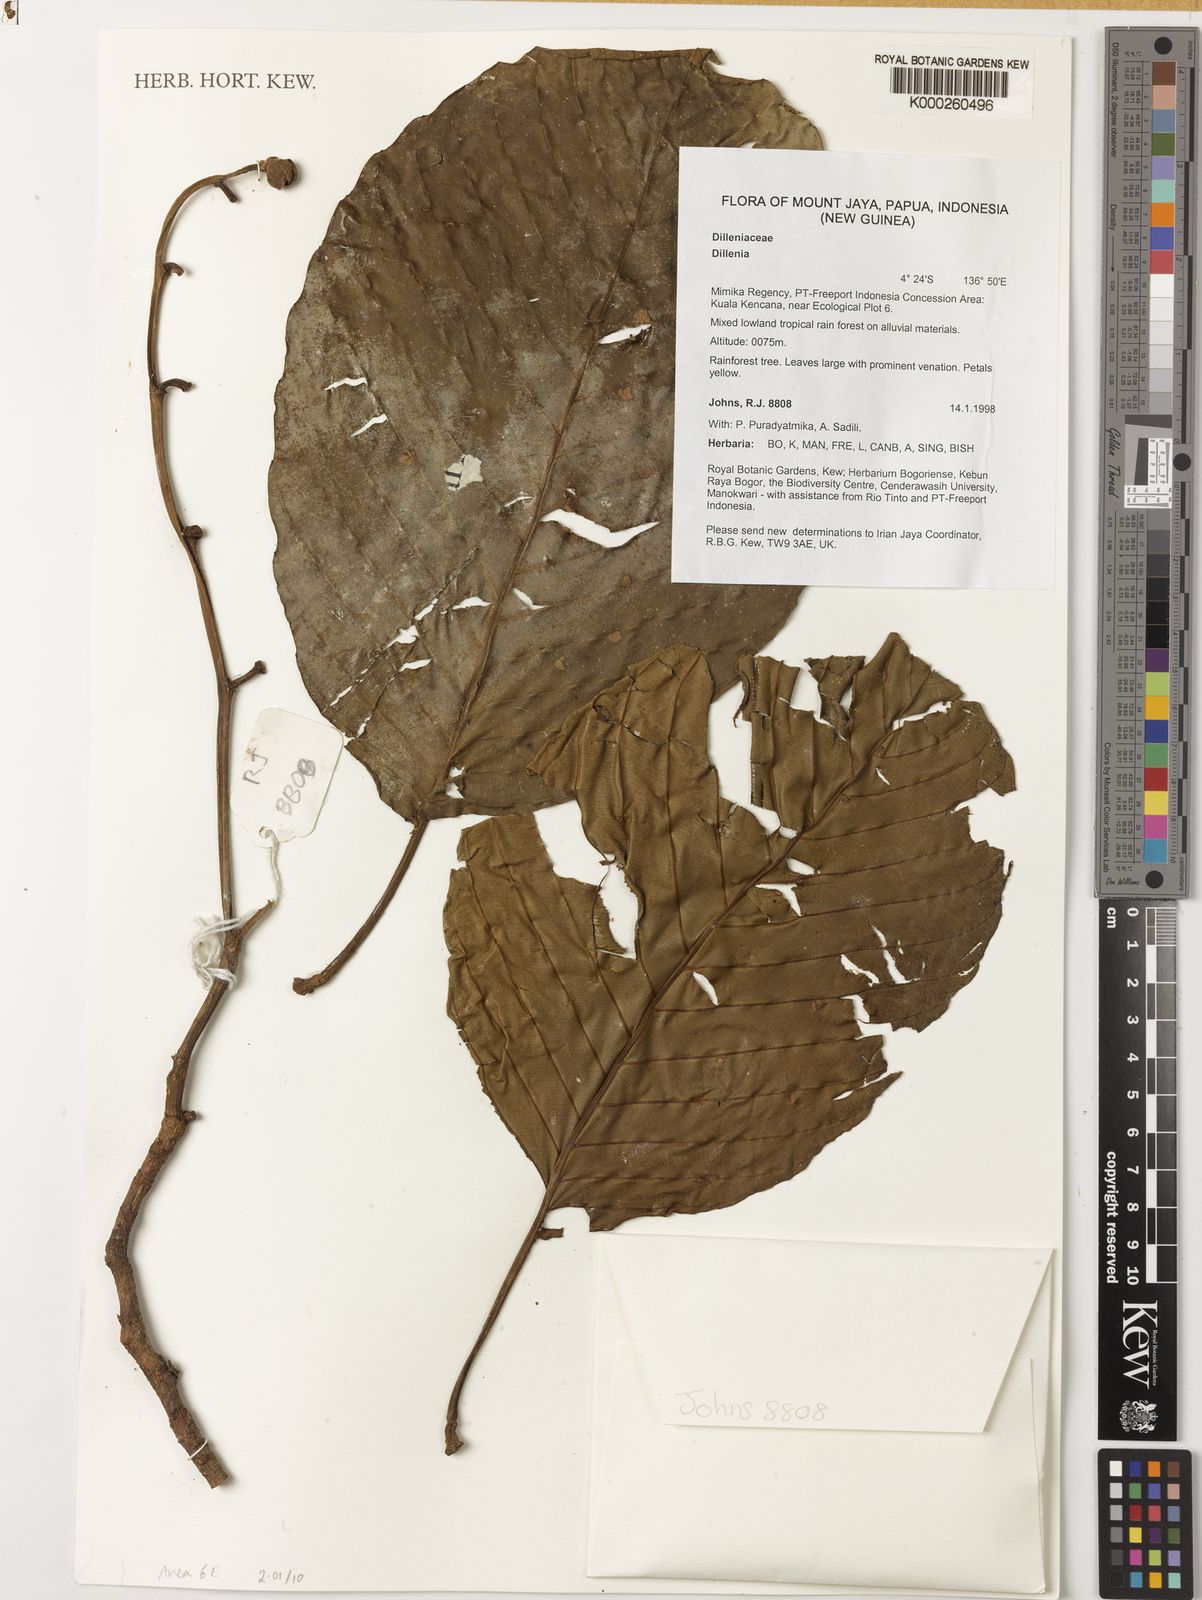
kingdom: Plantae
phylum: Tracheophyta
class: Magnoliopsida
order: Dilleniales
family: Dilleniaceae
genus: Dillenia
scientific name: Dillenia
